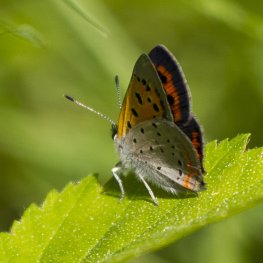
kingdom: Animalia
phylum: Arthropoda
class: Insecta
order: Lepidoptera
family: Lycaenidae
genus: Lycaena
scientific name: Lycaena phlaeas
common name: American Copper
